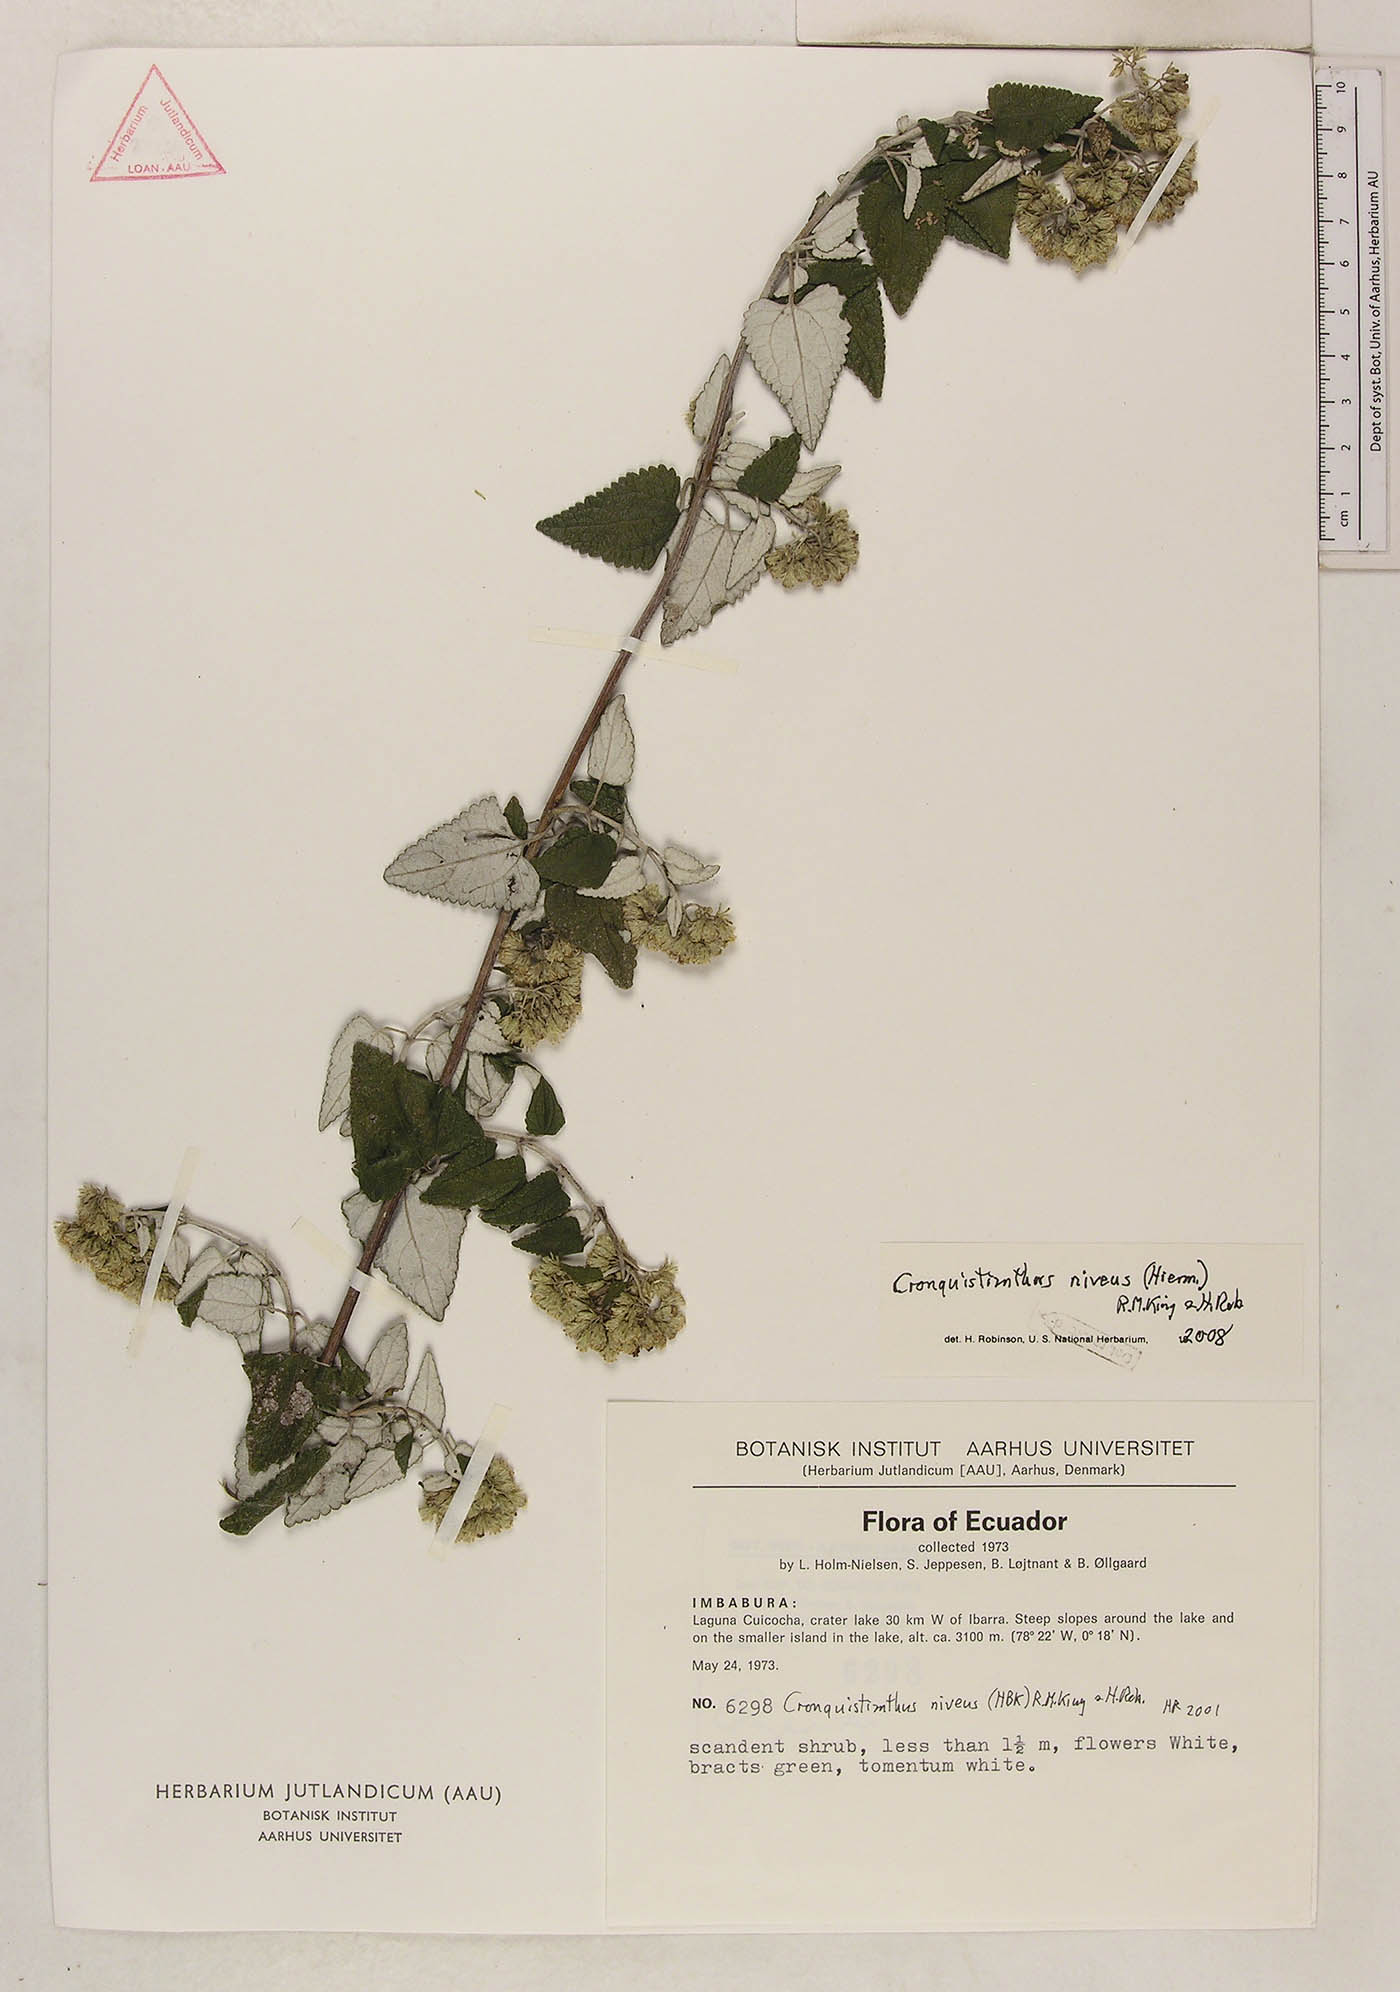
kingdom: Plantae
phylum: Tracheophyta
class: Magnoliopsida
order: Asterales
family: Asteraceae
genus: Cronquistianthus
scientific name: Cronquistianthus niveus
